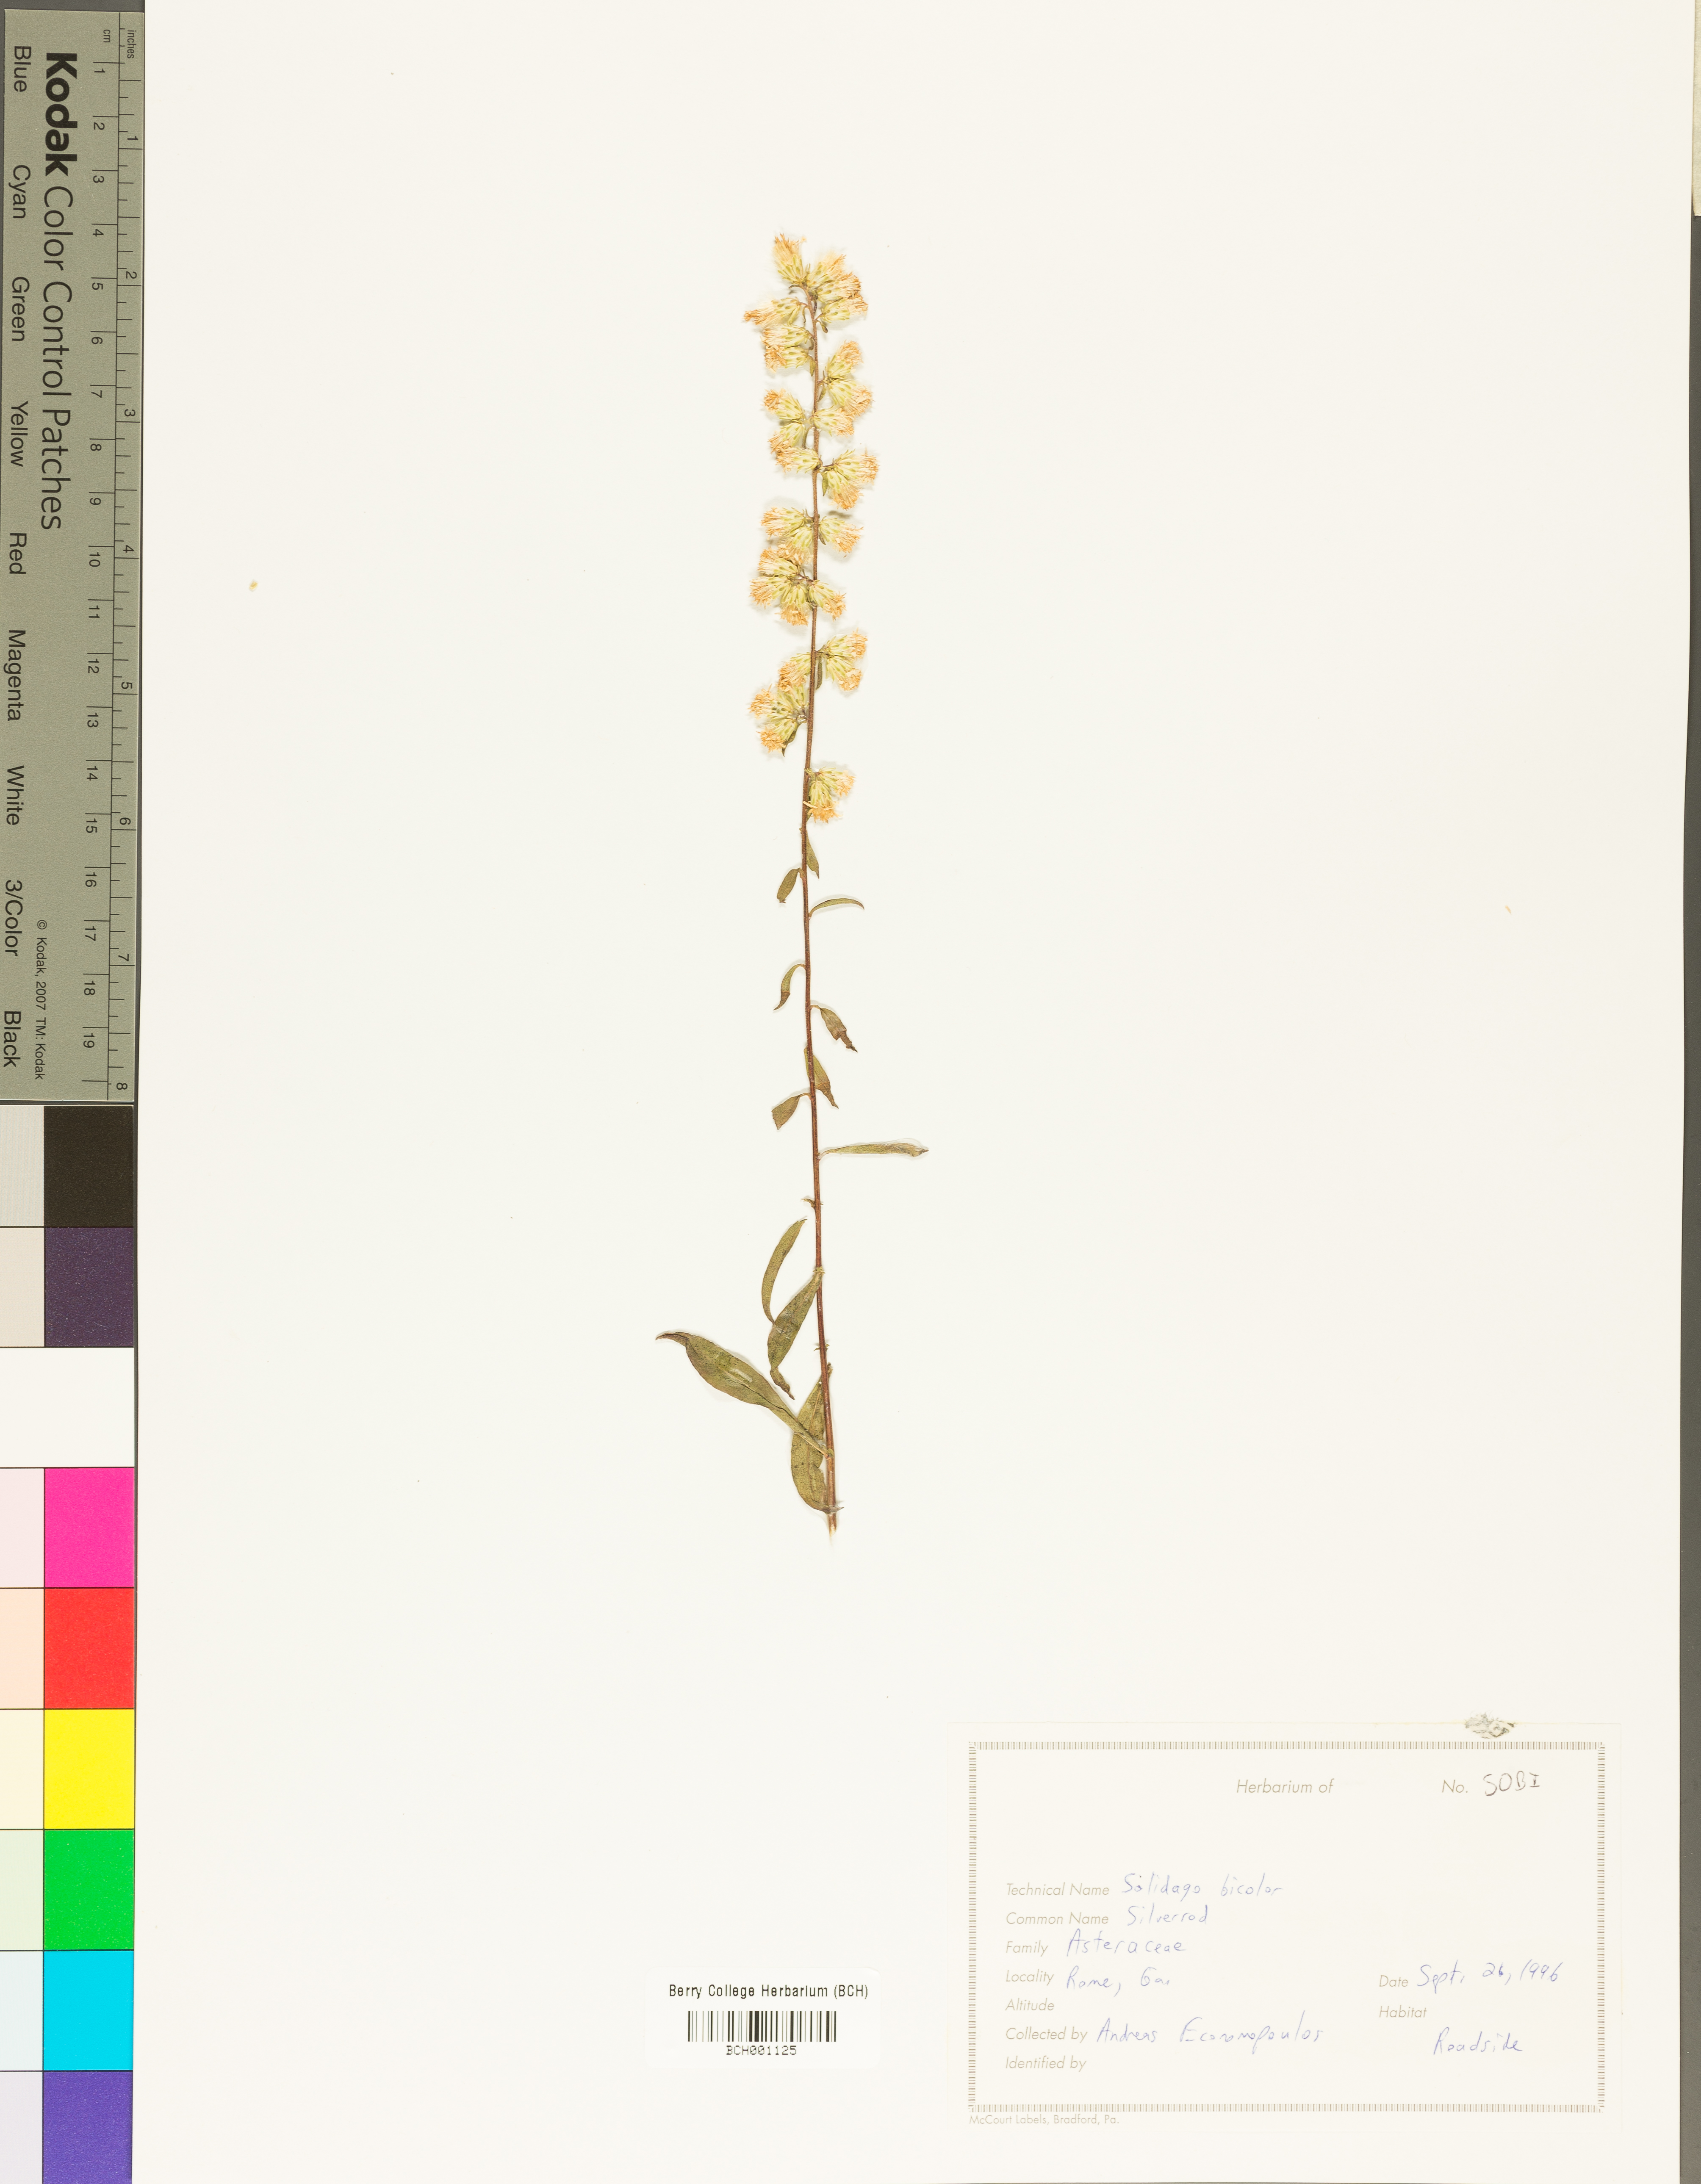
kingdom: Plantae
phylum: Tracheophyta
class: Magnoliopsida
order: Asterales
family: Asteraceae
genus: Solidago
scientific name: Solidago bicolor
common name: Silverrod
